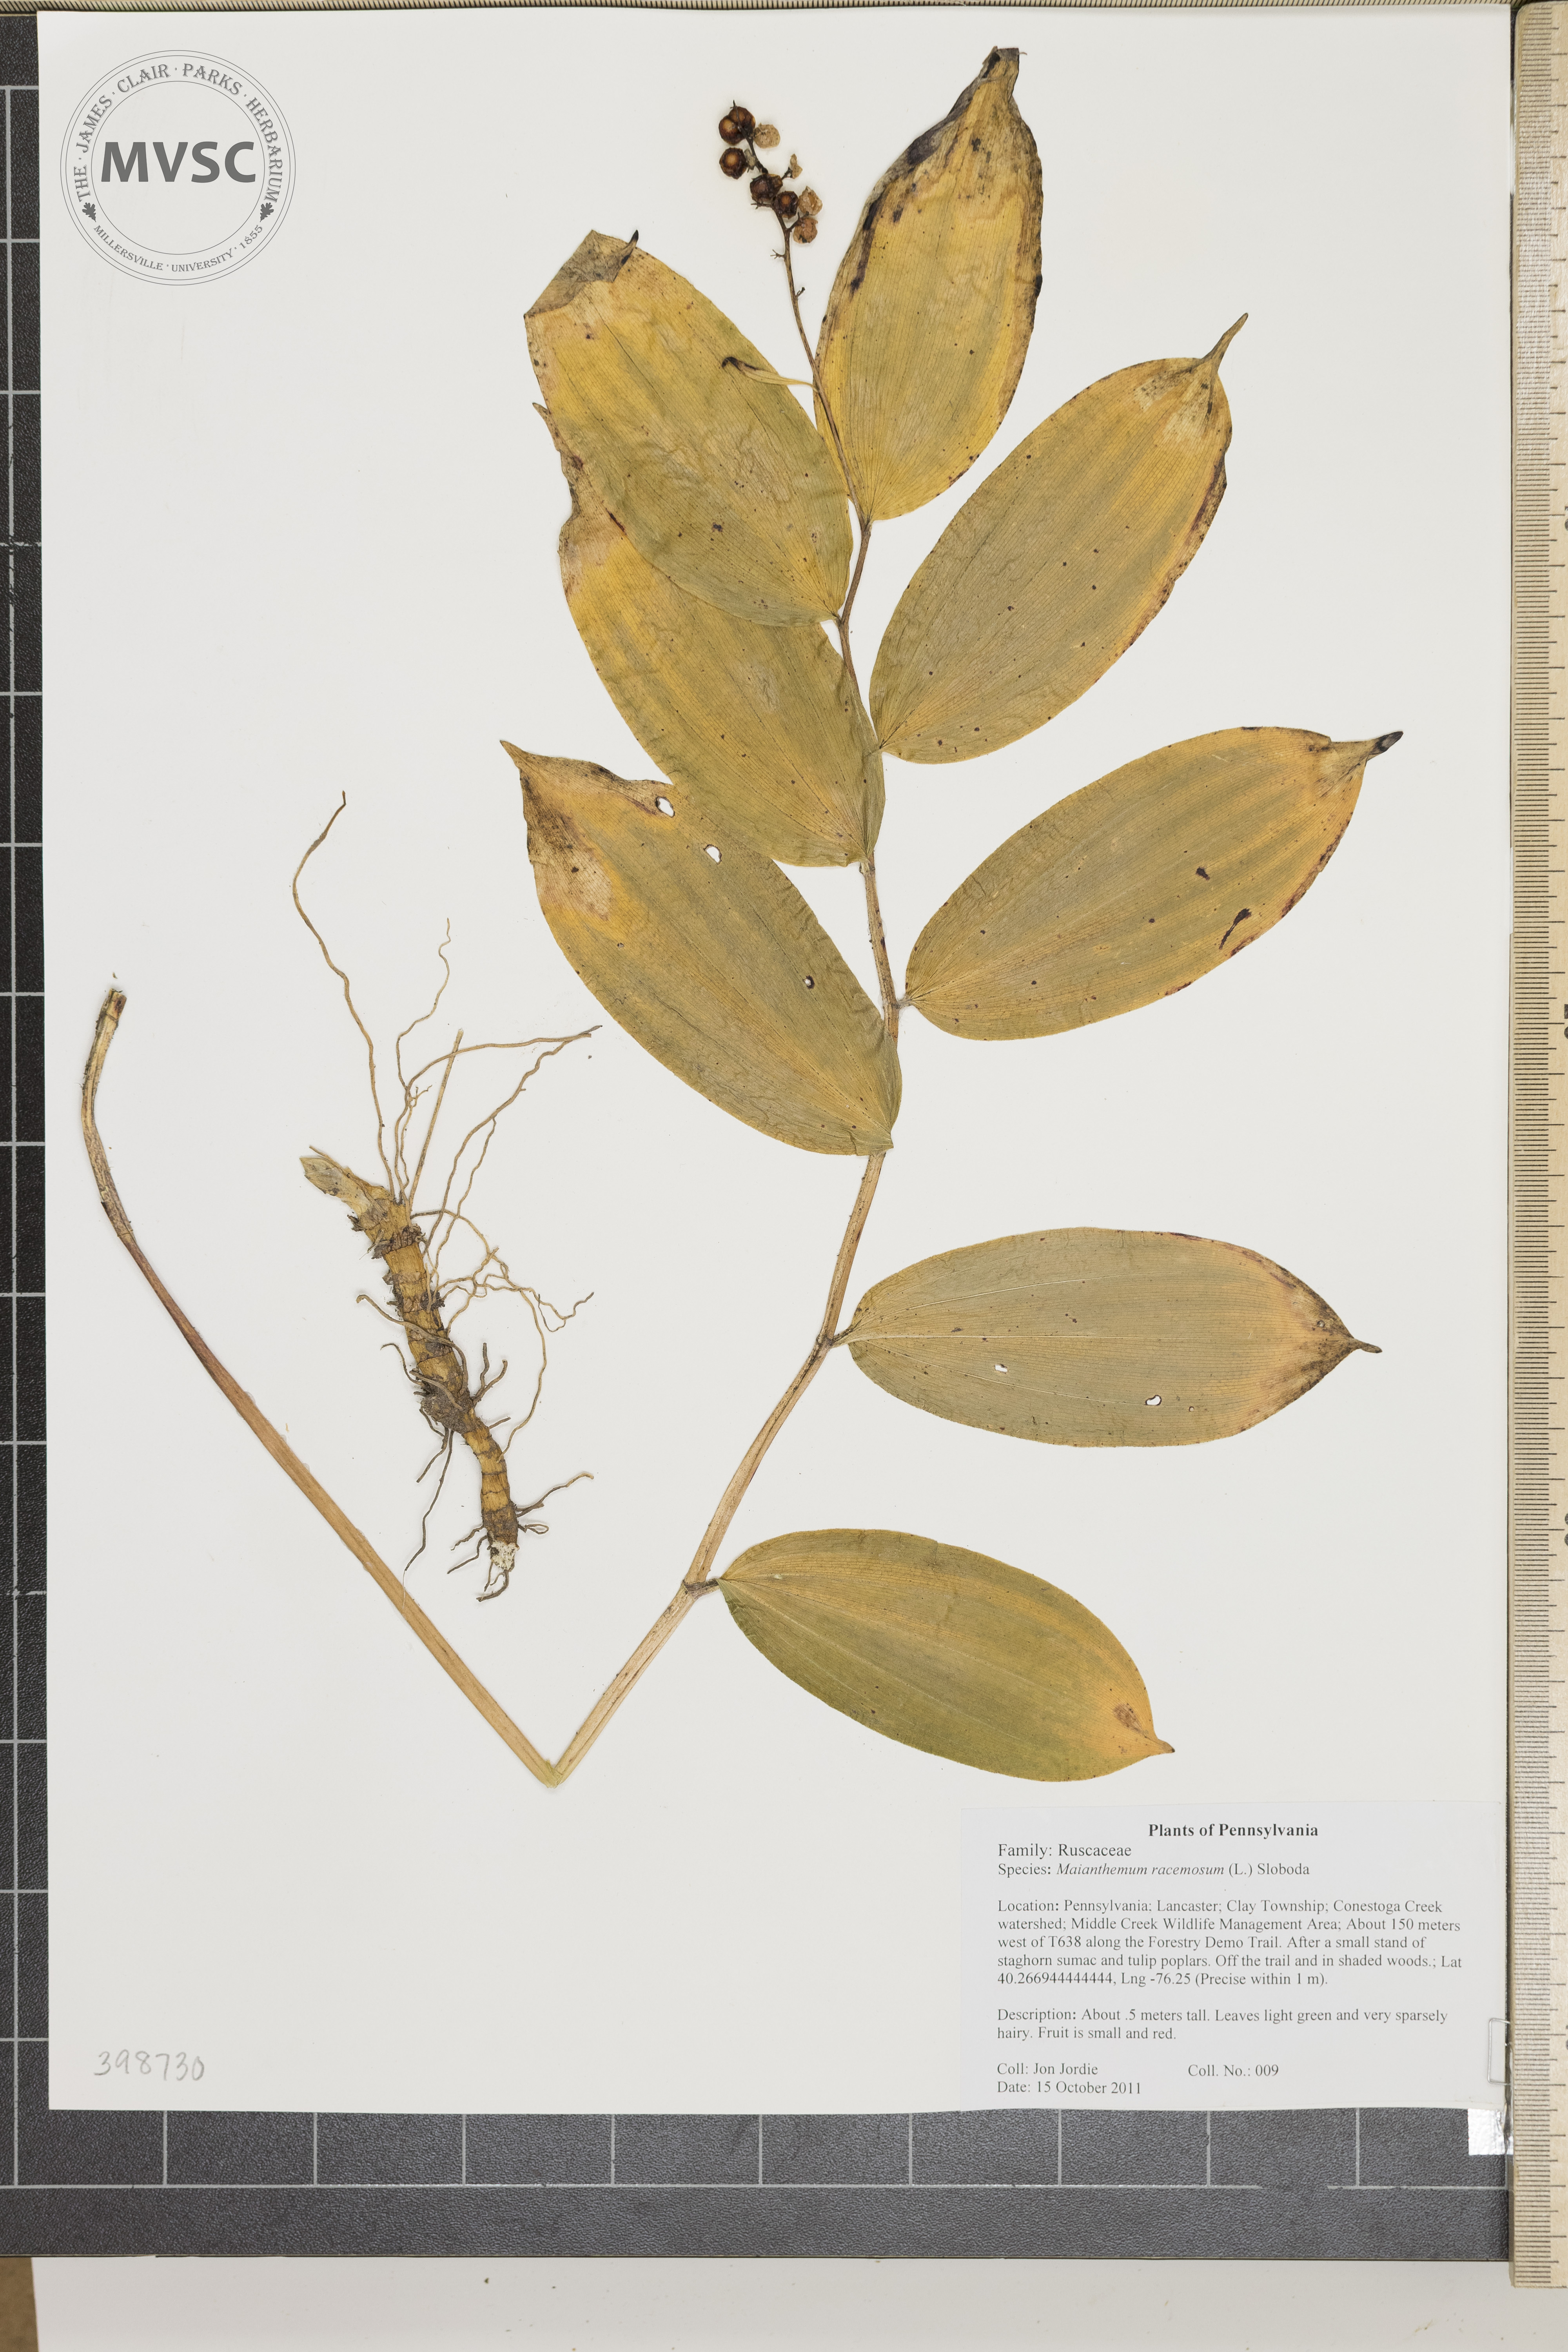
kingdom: Plantae
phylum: Tracheophyta
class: Liliopsida
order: Asparagales
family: Asparagaceae
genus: Maianthemum
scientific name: Maianthemum racemosum
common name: False solomon's-seal
